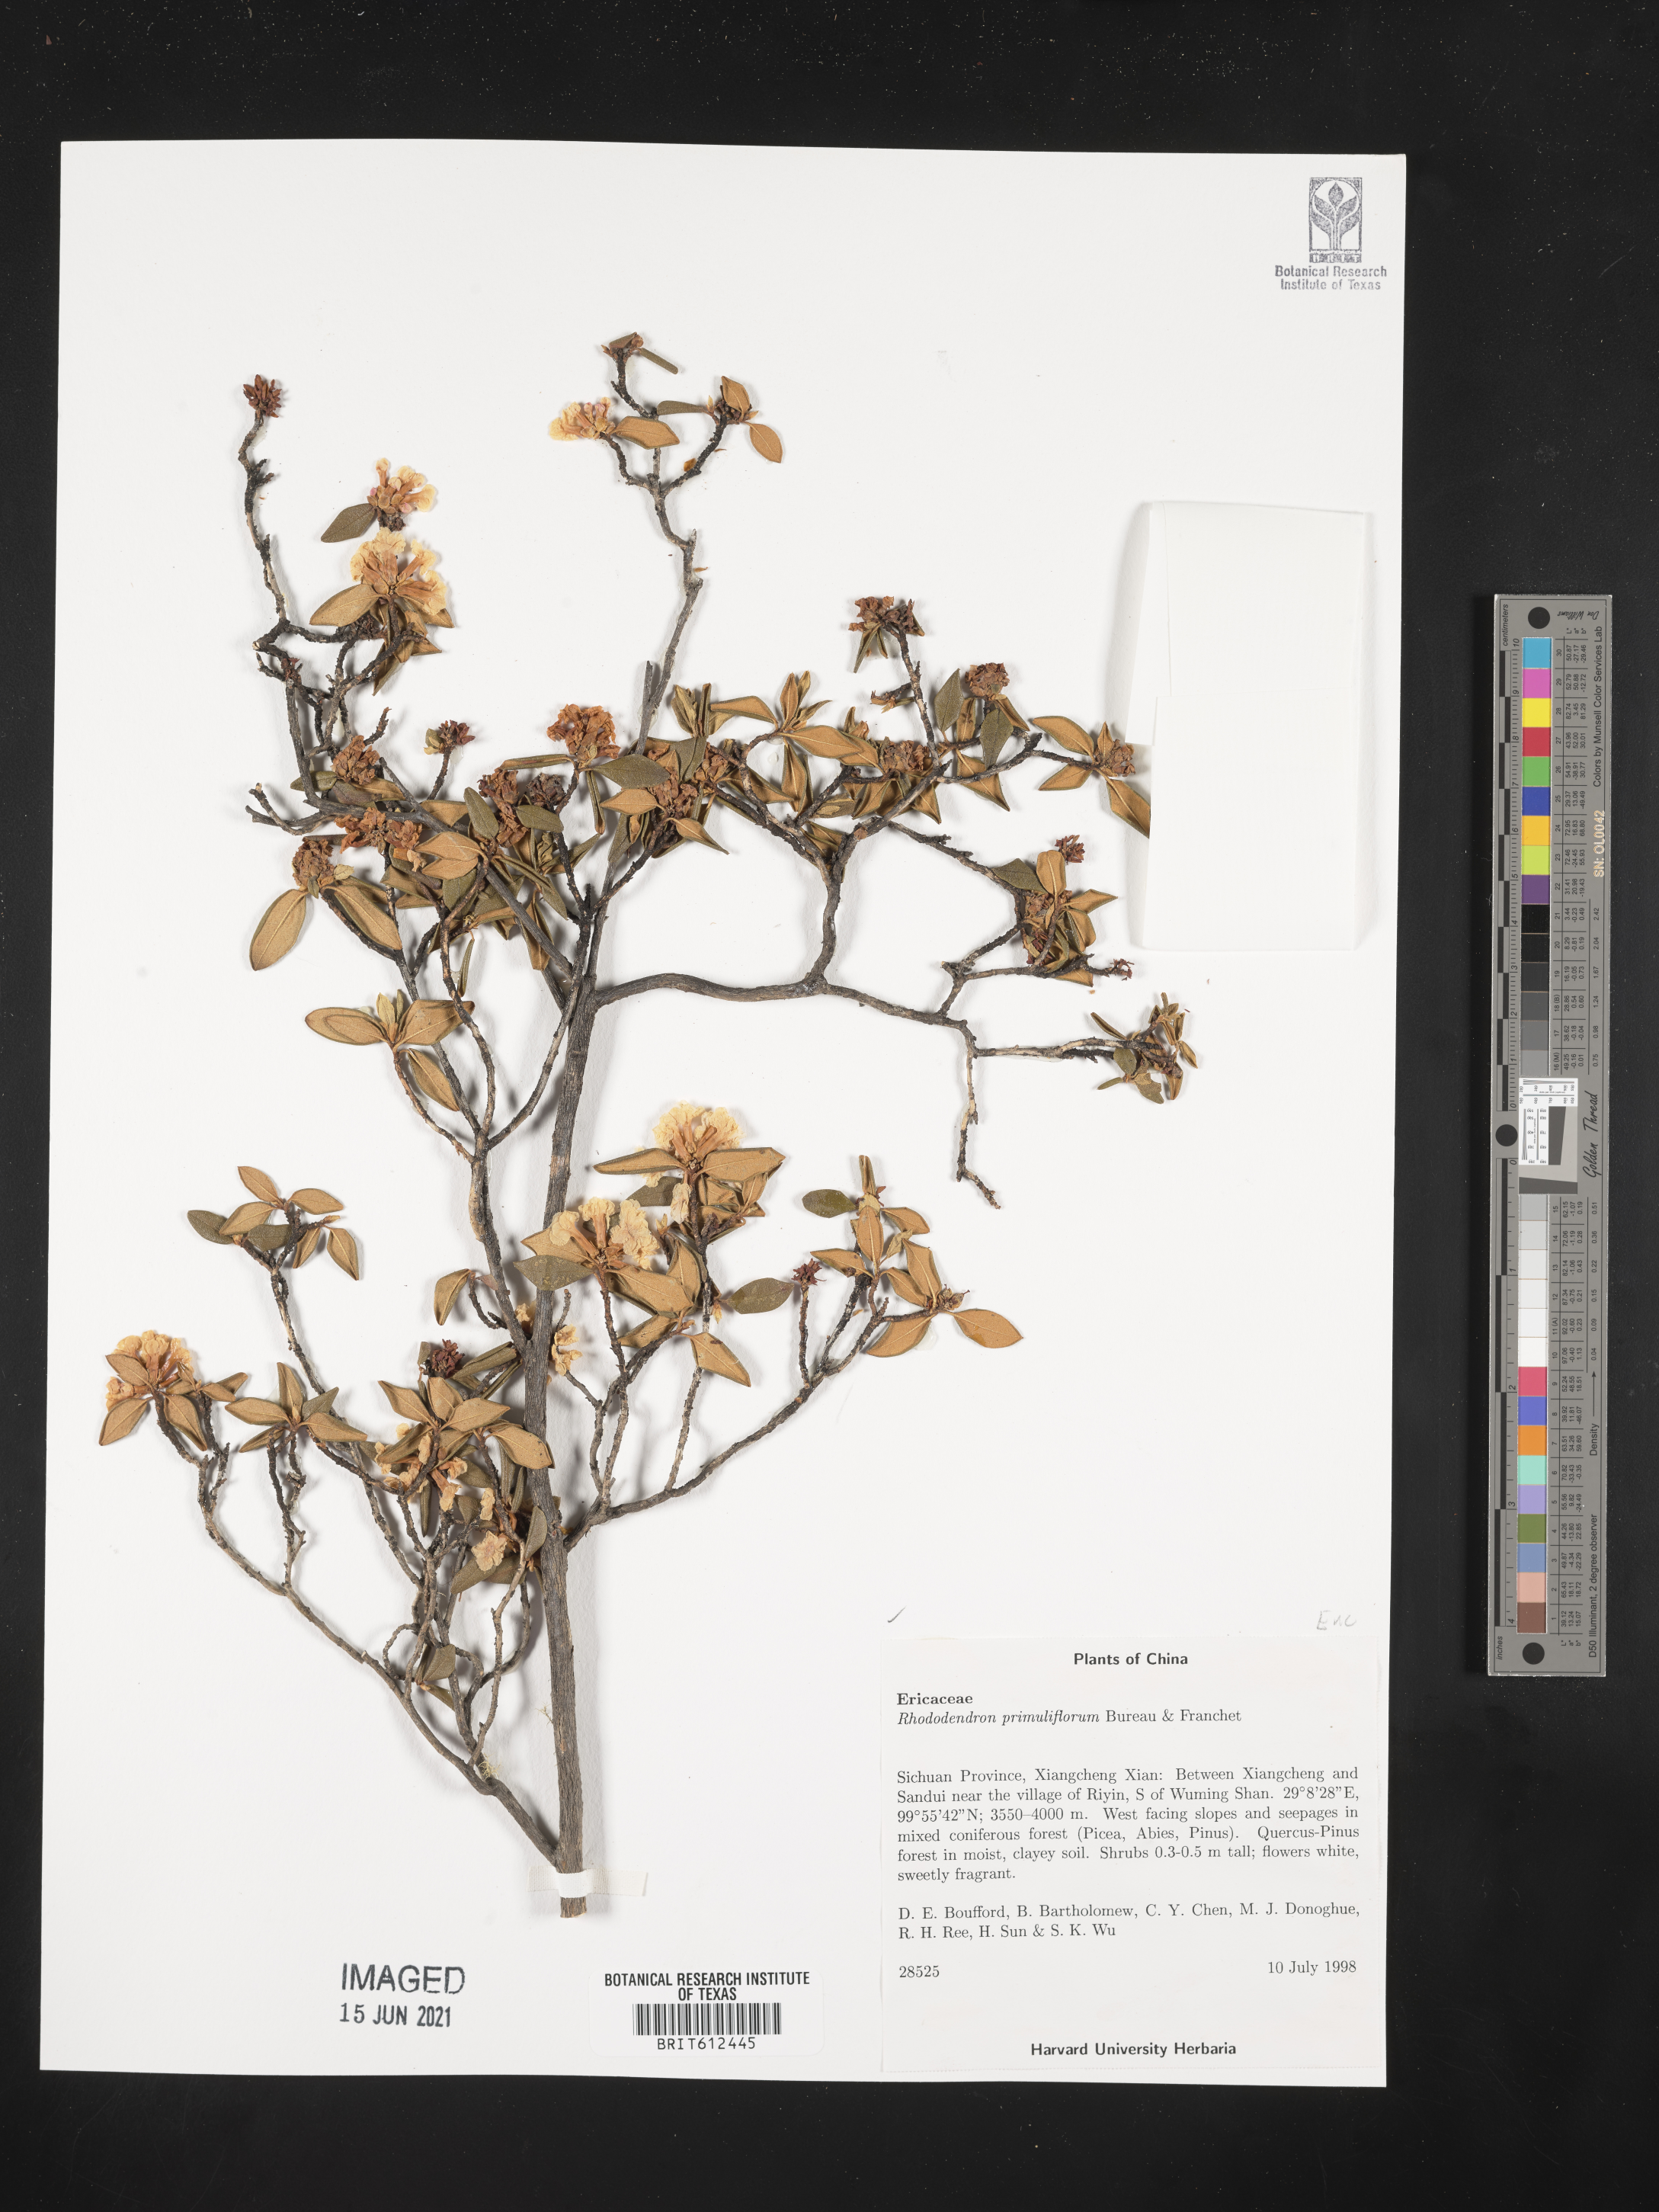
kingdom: Plantae
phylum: Tracheophyta
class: Magnoliopsida
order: Ericales
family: Ericaceae
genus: Rhododendron
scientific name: Rhododendron primuliflorum
